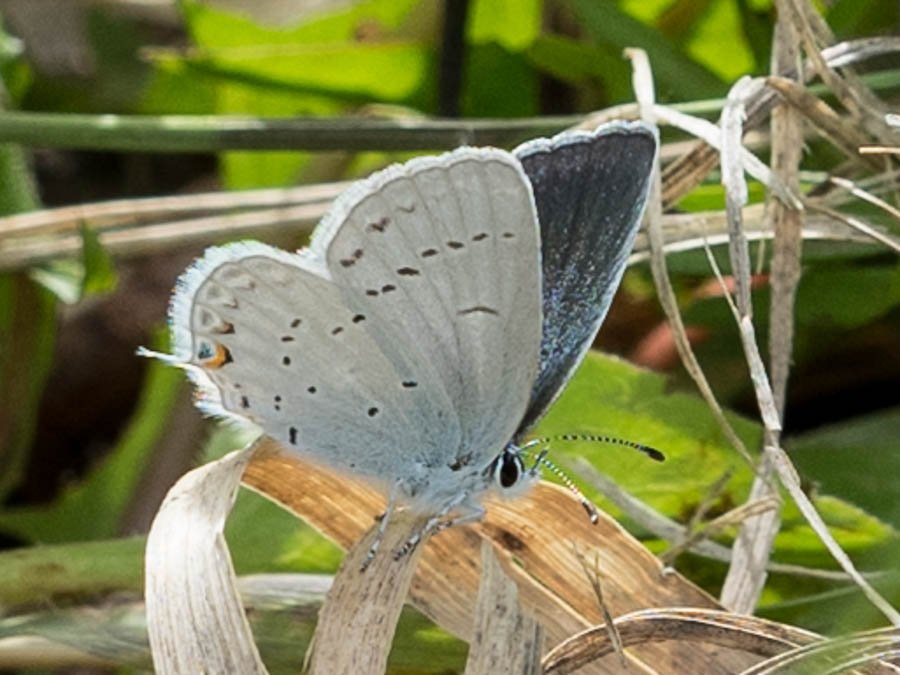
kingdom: Animalia
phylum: Arthropoda
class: Insecta
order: Lepidoptera
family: Lycaenidae
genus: Elkalyce
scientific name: Elkalyce amyntula
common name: Western Tailed-Blue
